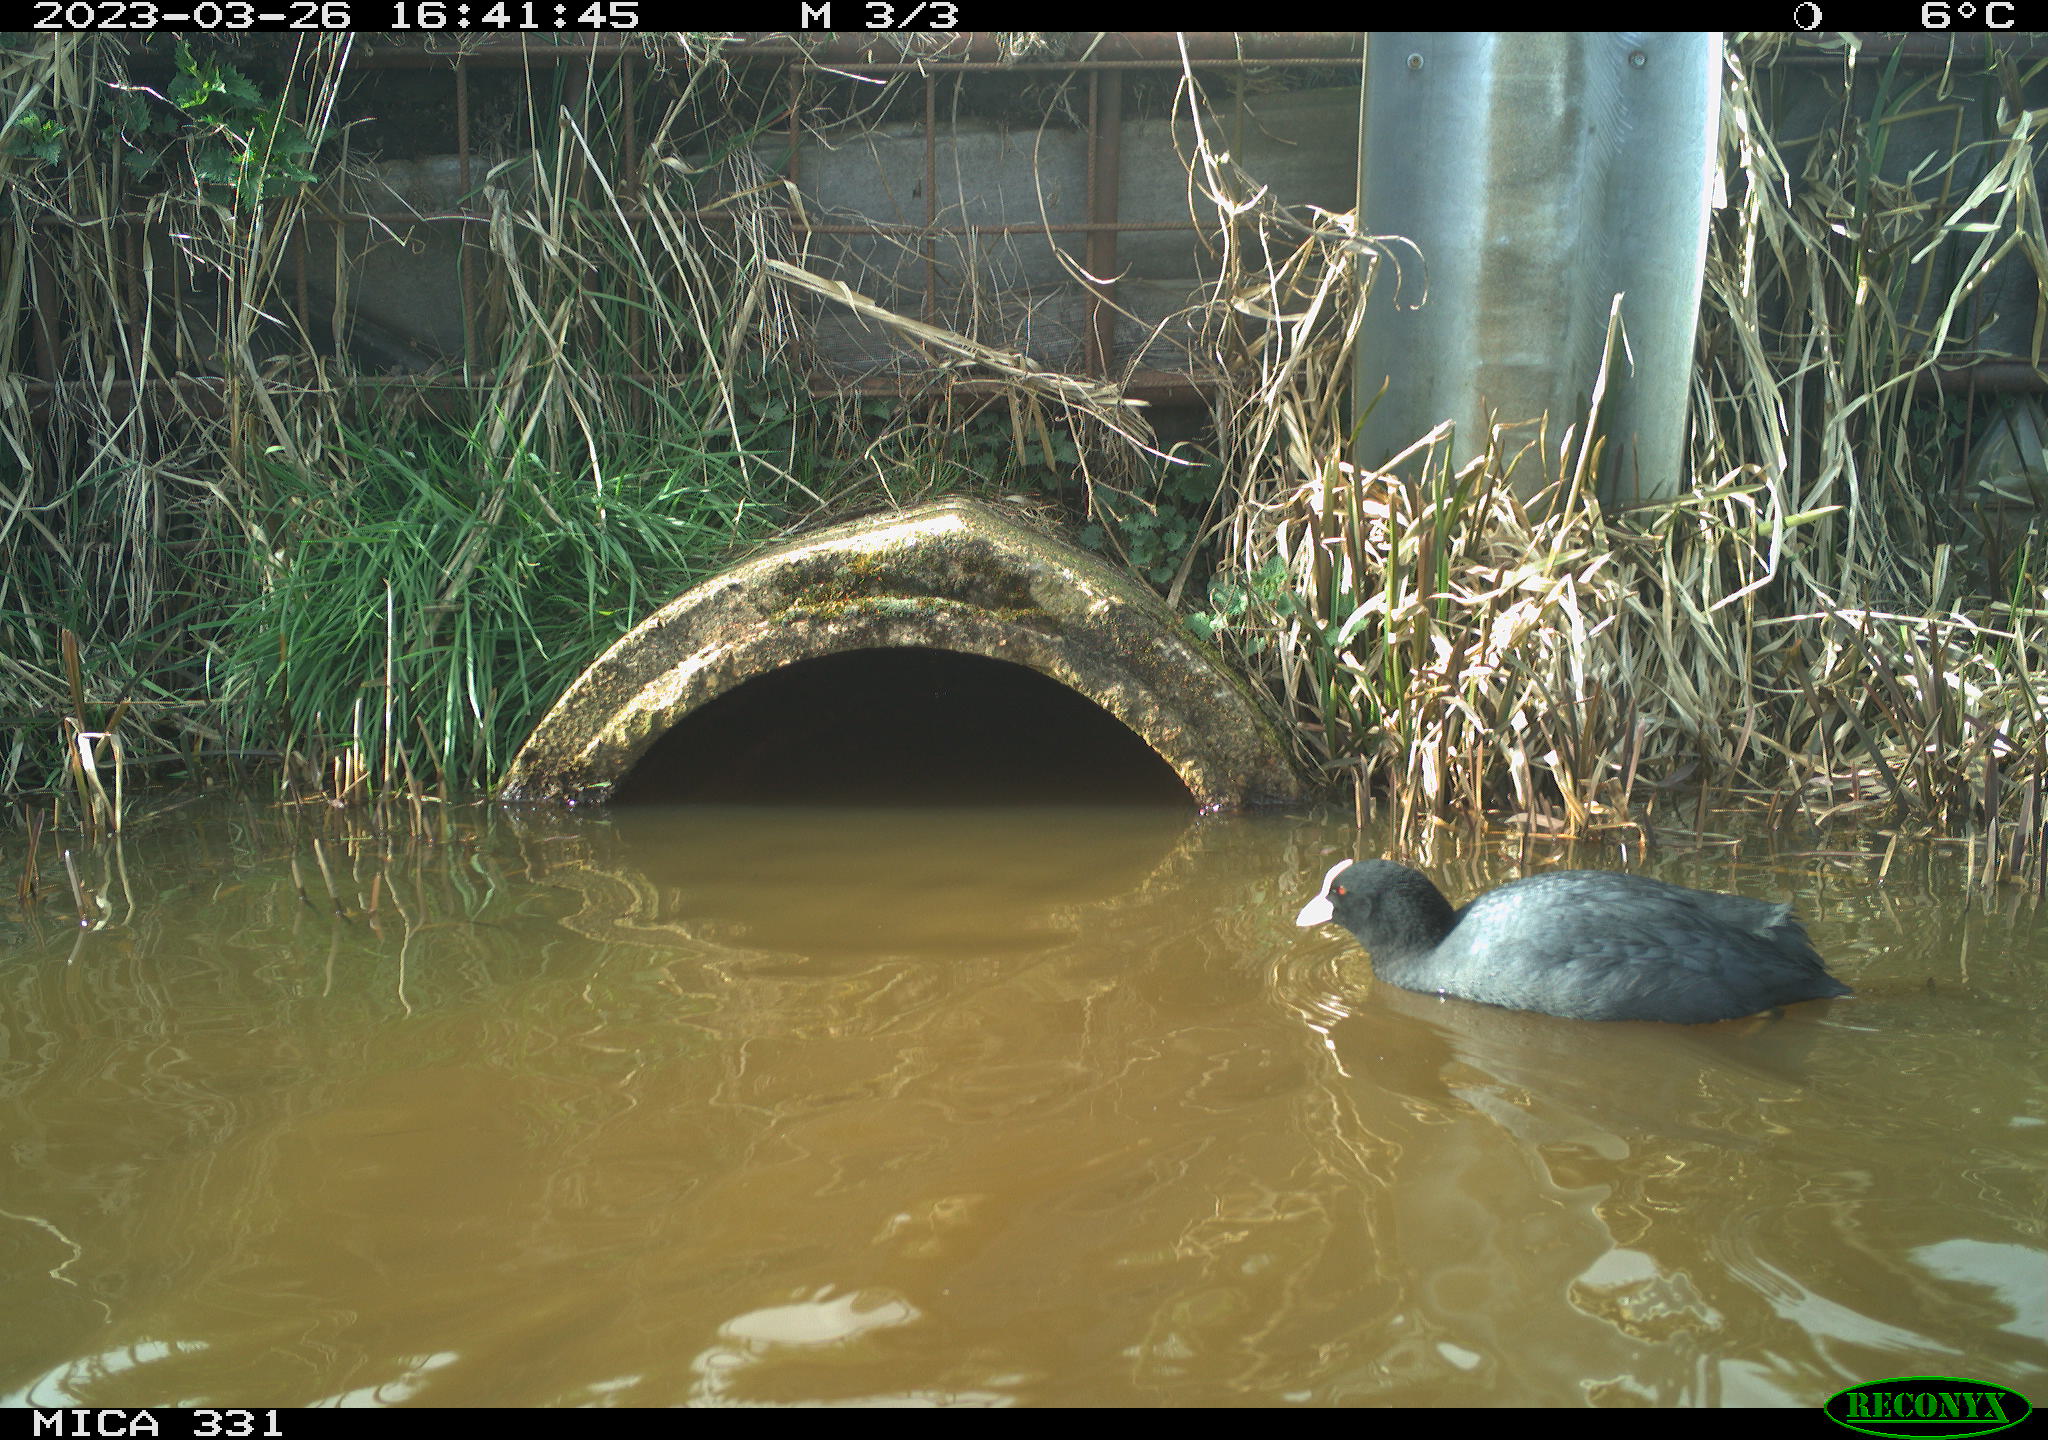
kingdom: Animalia
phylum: Chordata
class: Aves
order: Gruiformes
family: Rallidae
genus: Fulica
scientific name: Fulica atra
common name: Eurasian coot
